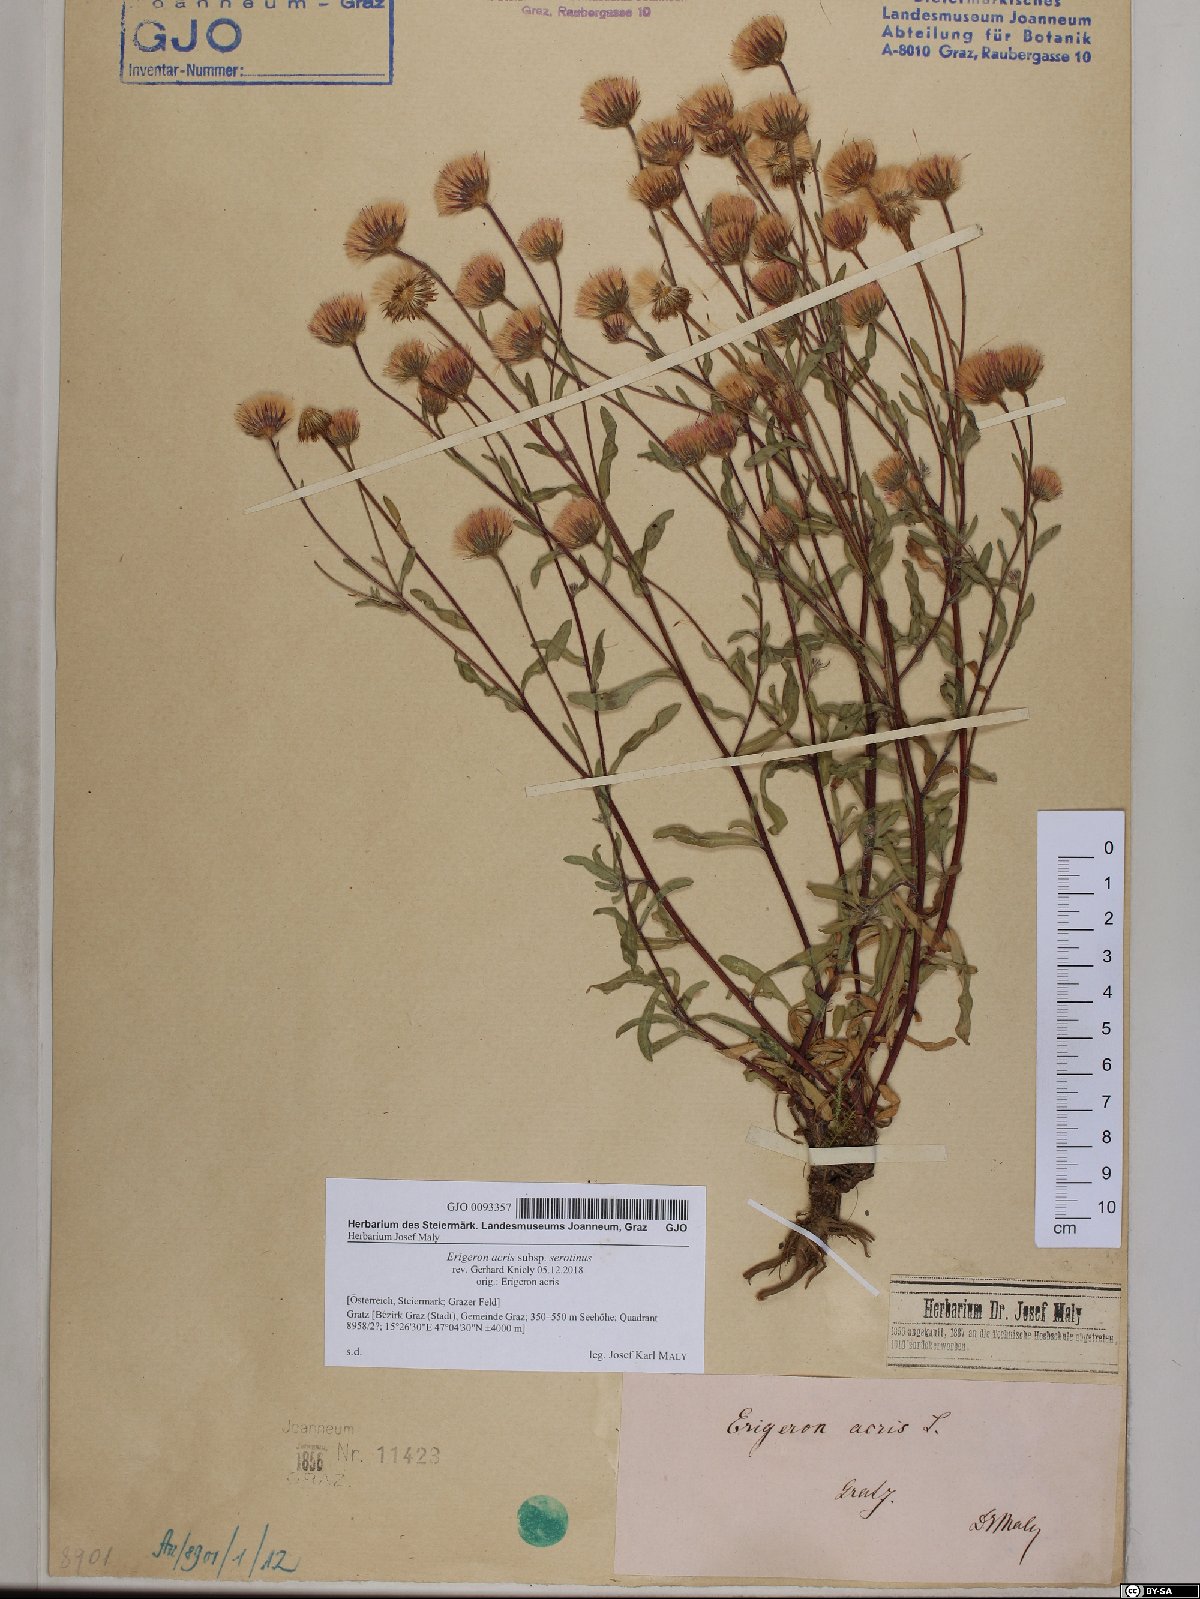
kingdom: Plantae
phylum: Tracheophyta
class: Magnoliopsida
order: Asterales
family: Asteraceae
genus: Erigeron
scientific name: Erigeron muralis
